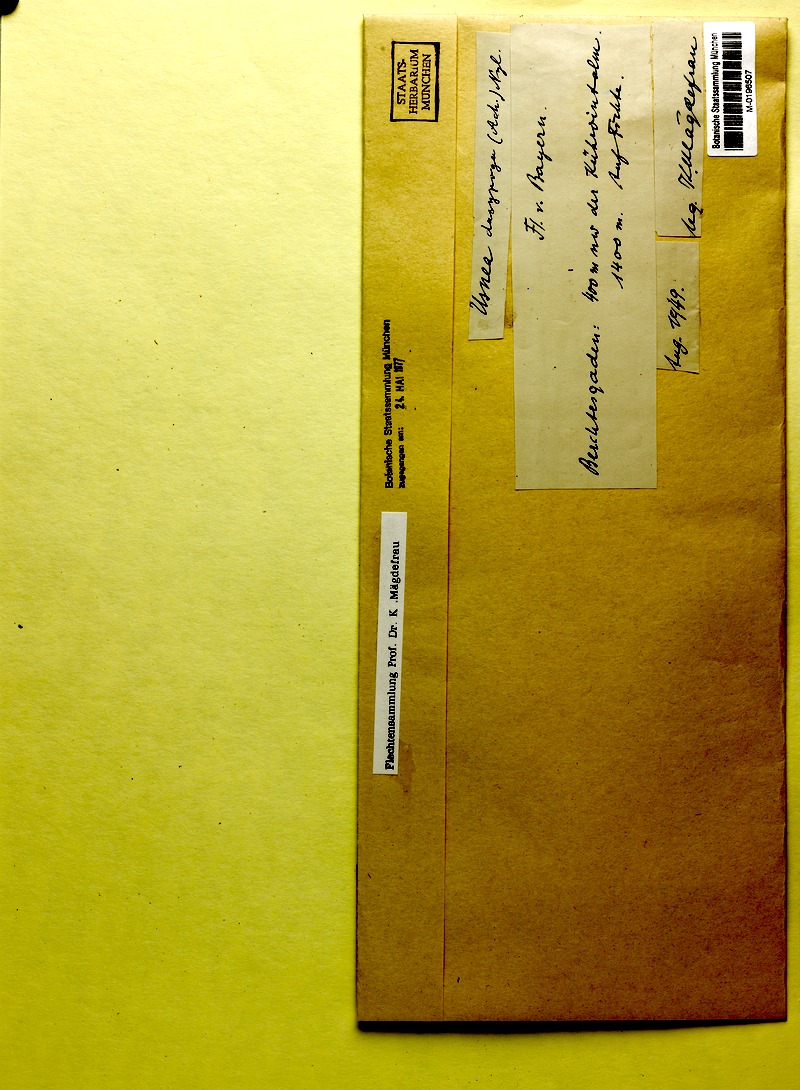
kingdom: Fungi
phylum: Ascomycota
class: Lecanoromycetes
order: Lecanorales
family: Parmeliaceae
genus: Usnea
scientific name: Usnea dasopoga
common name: Fishbone beard lichen
